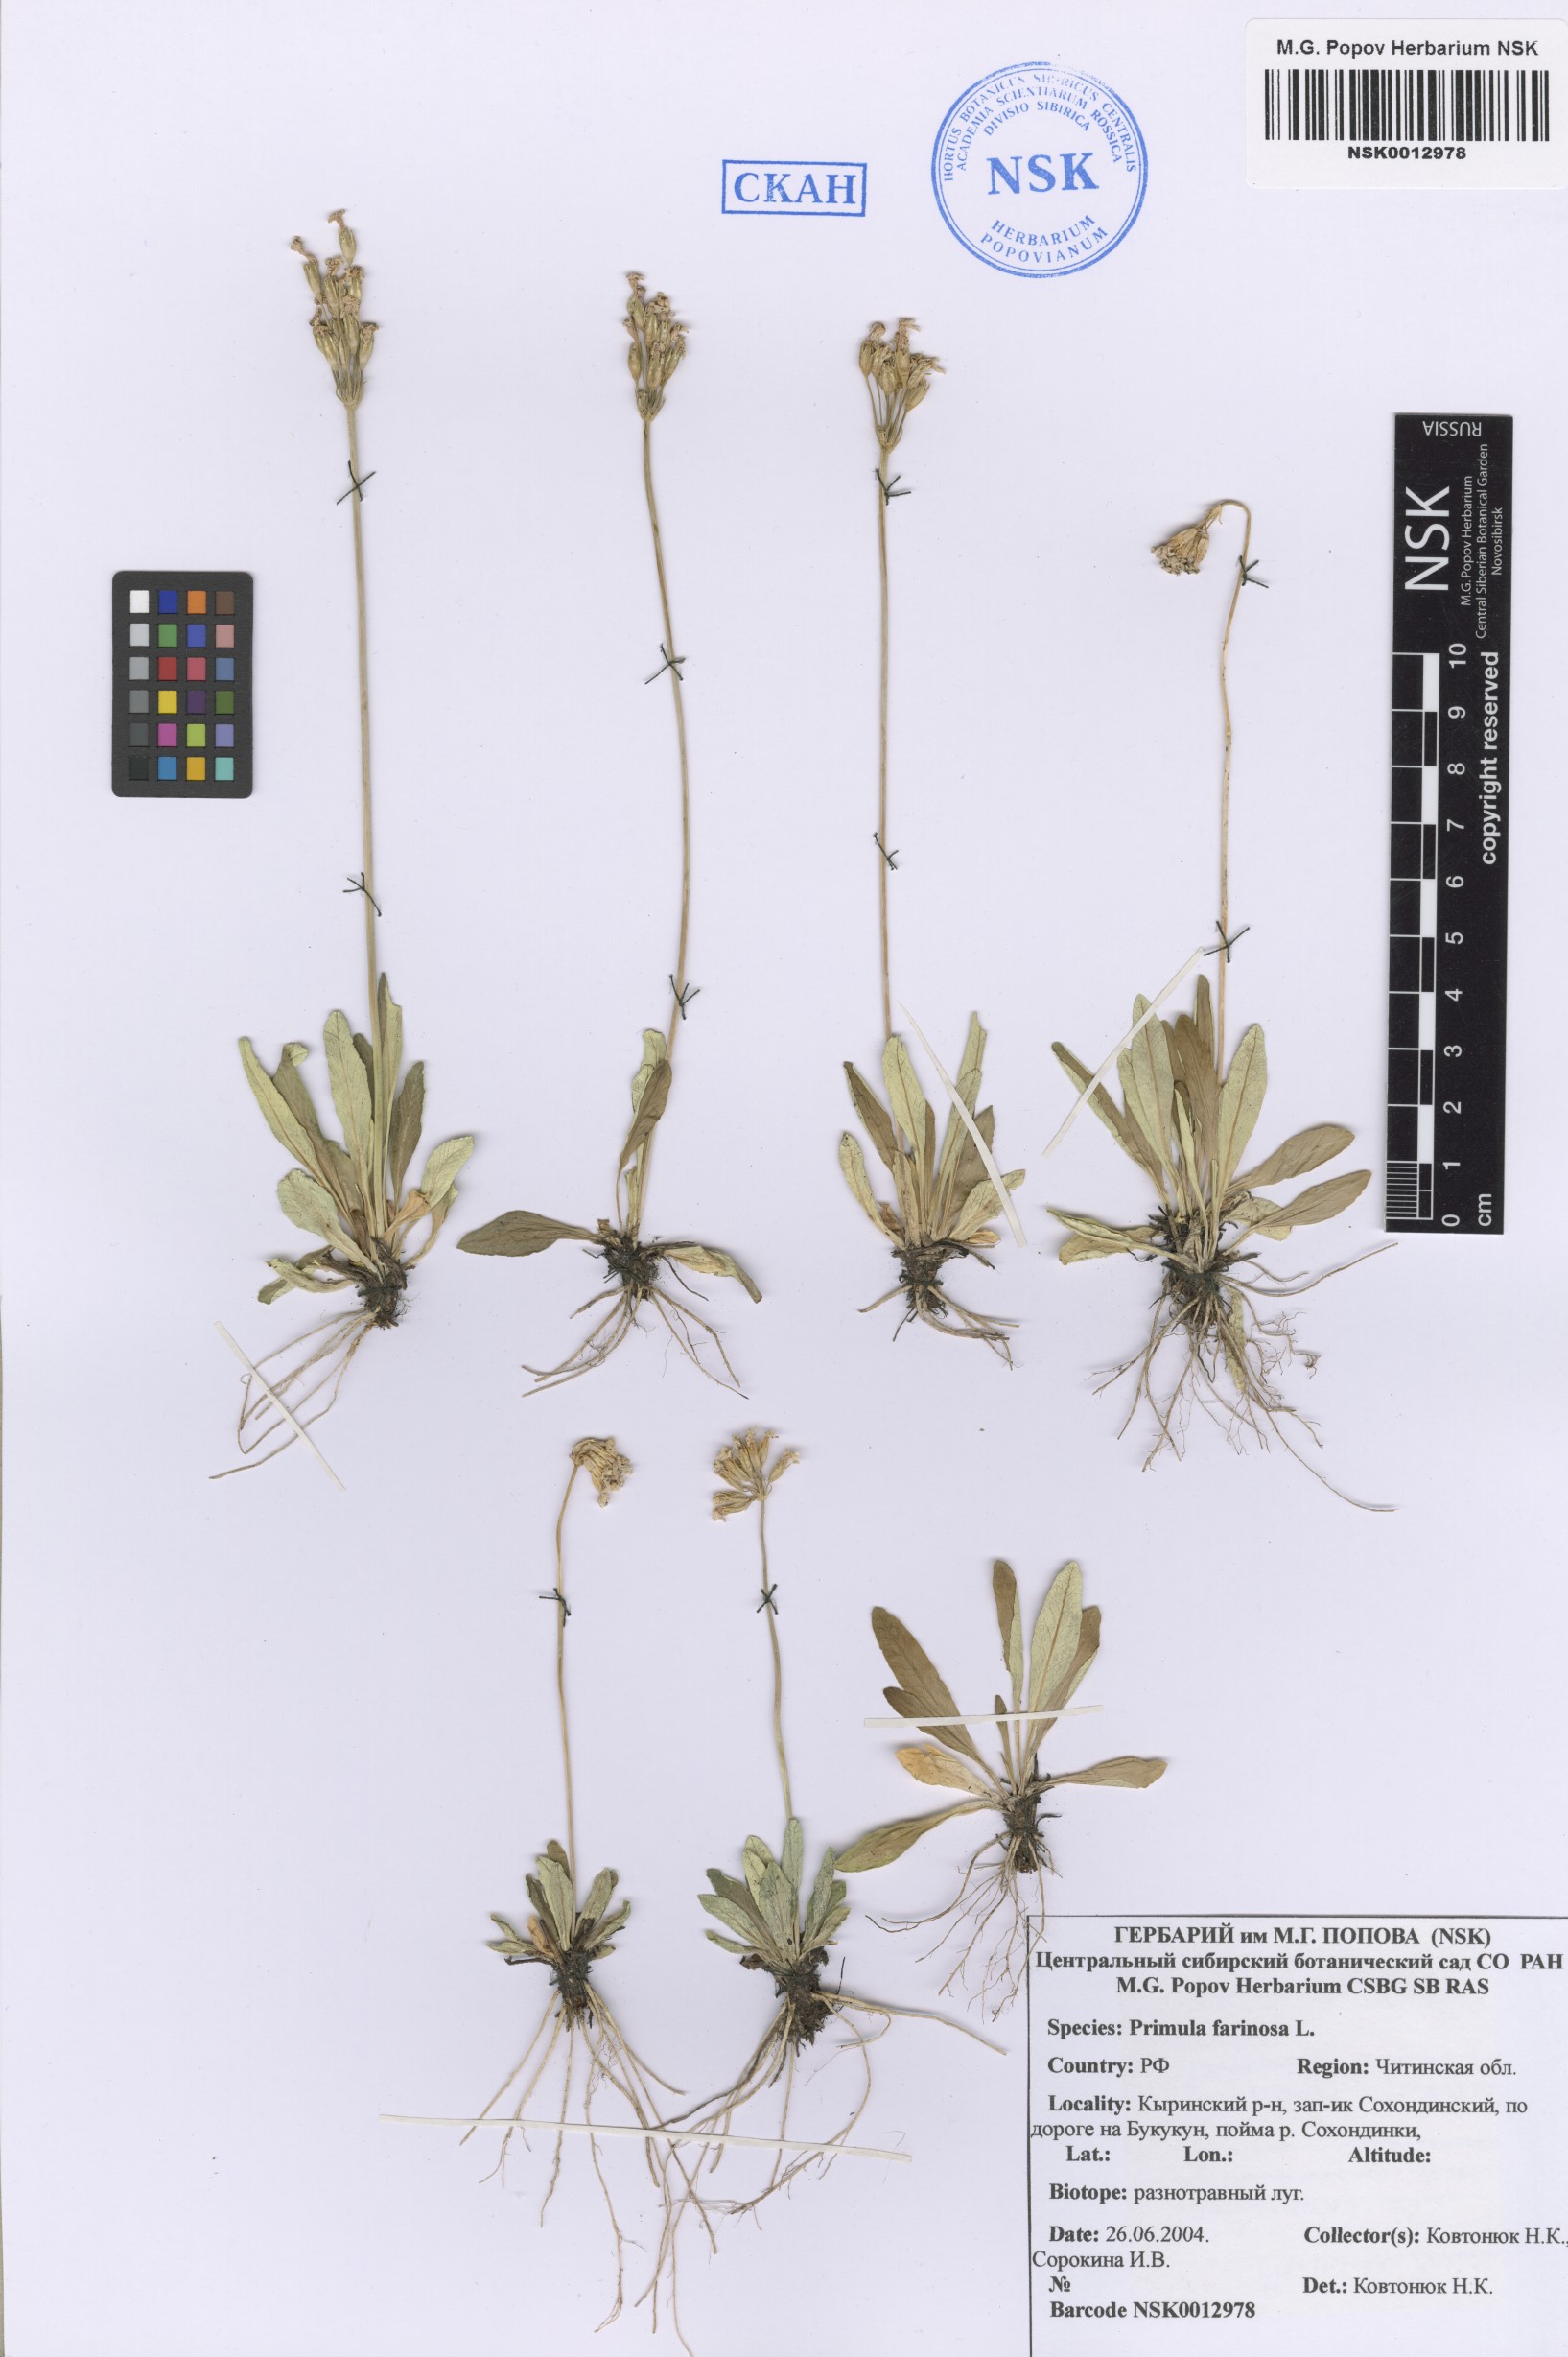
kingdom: Plantae
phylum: Tracheophyta
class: Magnoliopsida
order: Ericales
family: Primulaceae
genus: Primula
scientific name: Primula farinosa
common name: Bird's-eye primrose
